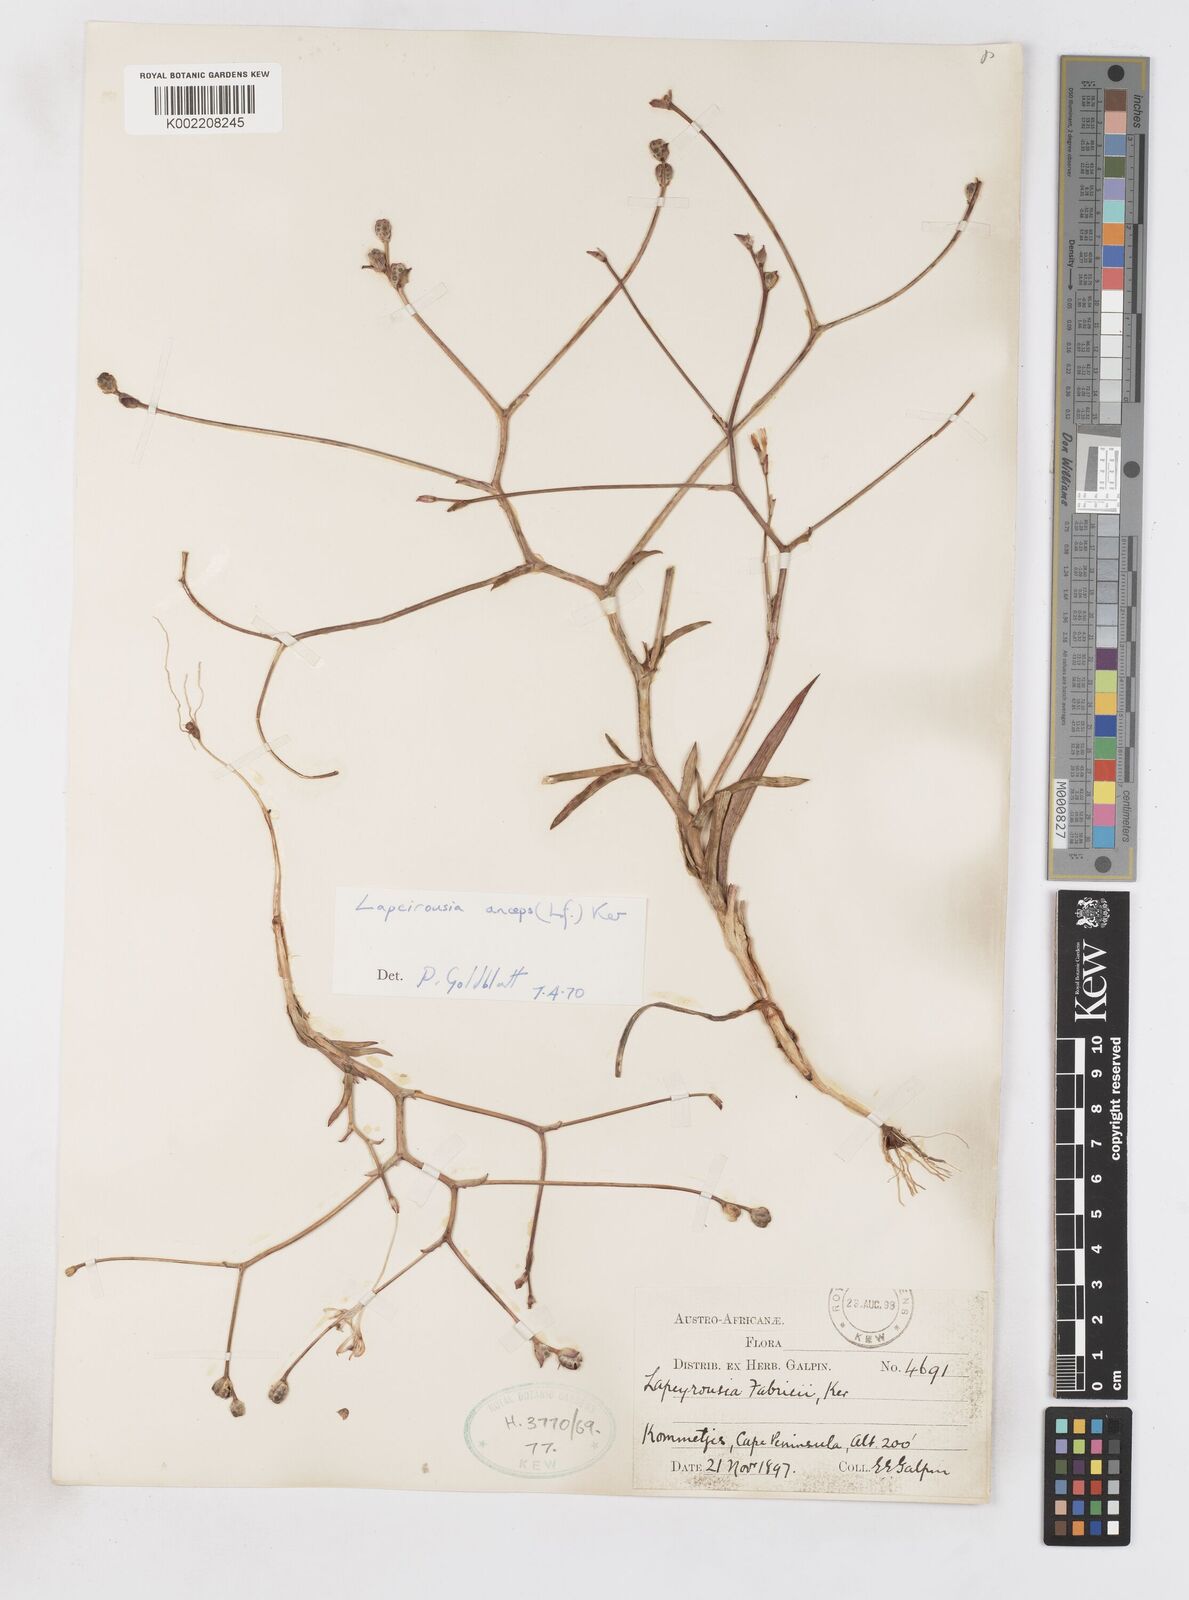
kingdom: Plantae
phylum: Tracheophyta
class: Liliopsida
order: Asparagales
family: Iridaceae
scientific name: Iridaceae
